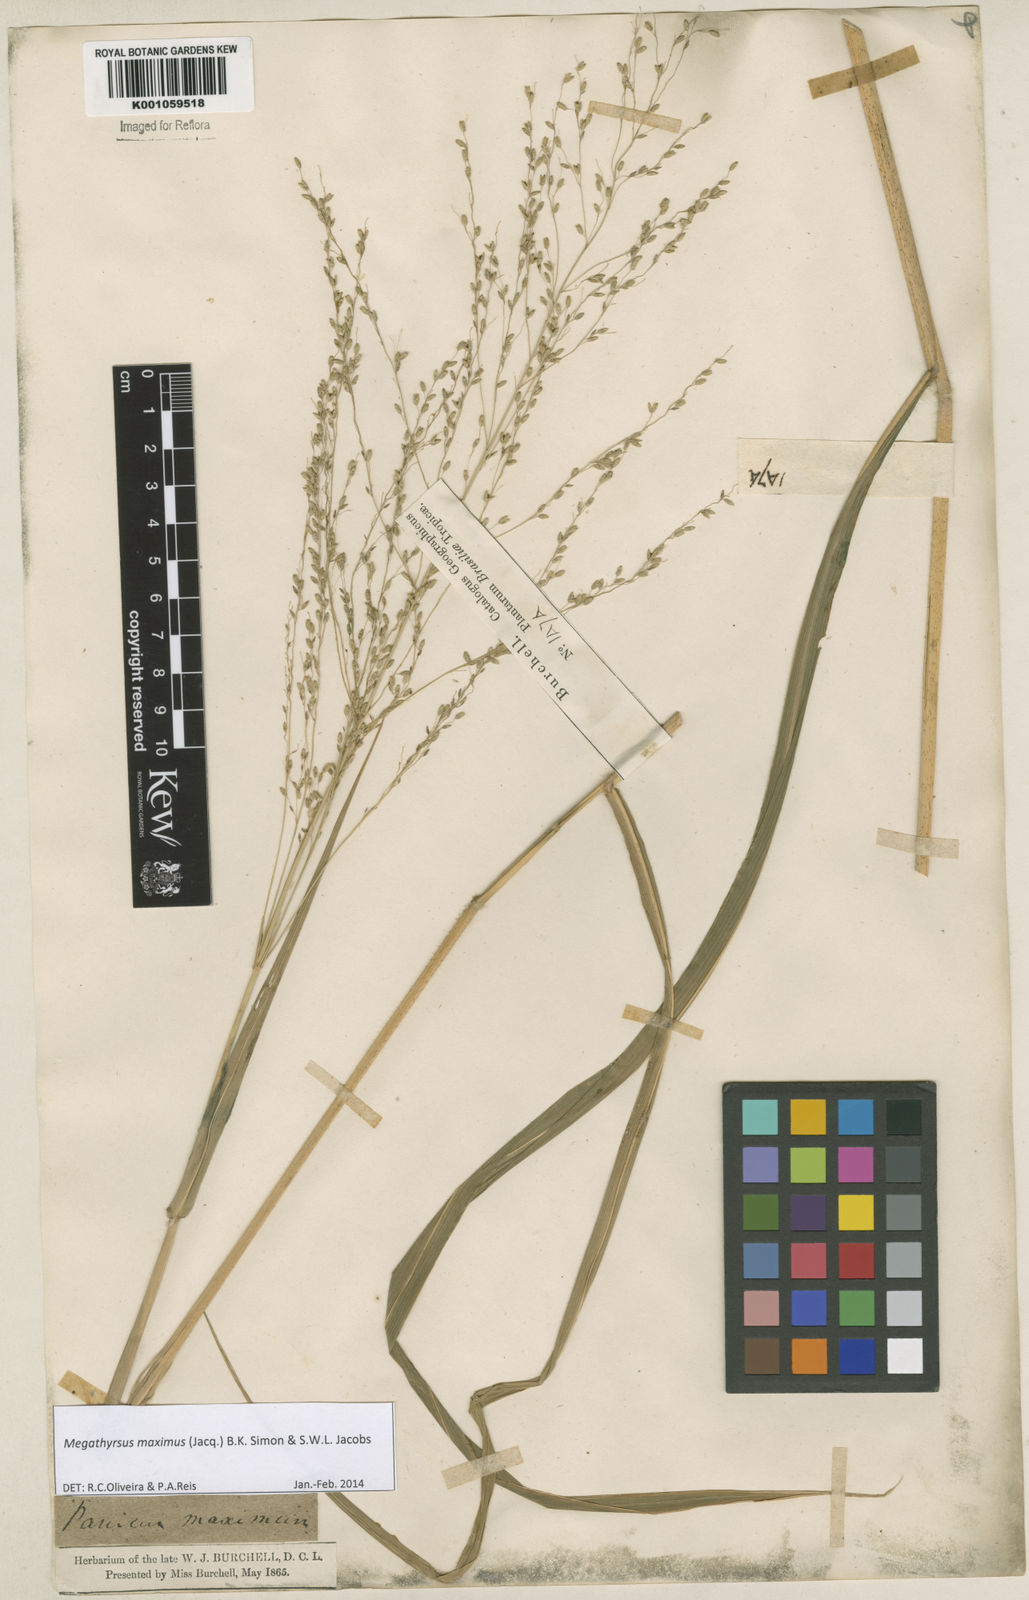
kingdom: Plantae
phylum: Tracheophyta
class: Liliopsida
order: Poales
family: Poaceae
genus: Megathyrsus
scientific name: Megathyrsus maximus
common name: Guineagrass
